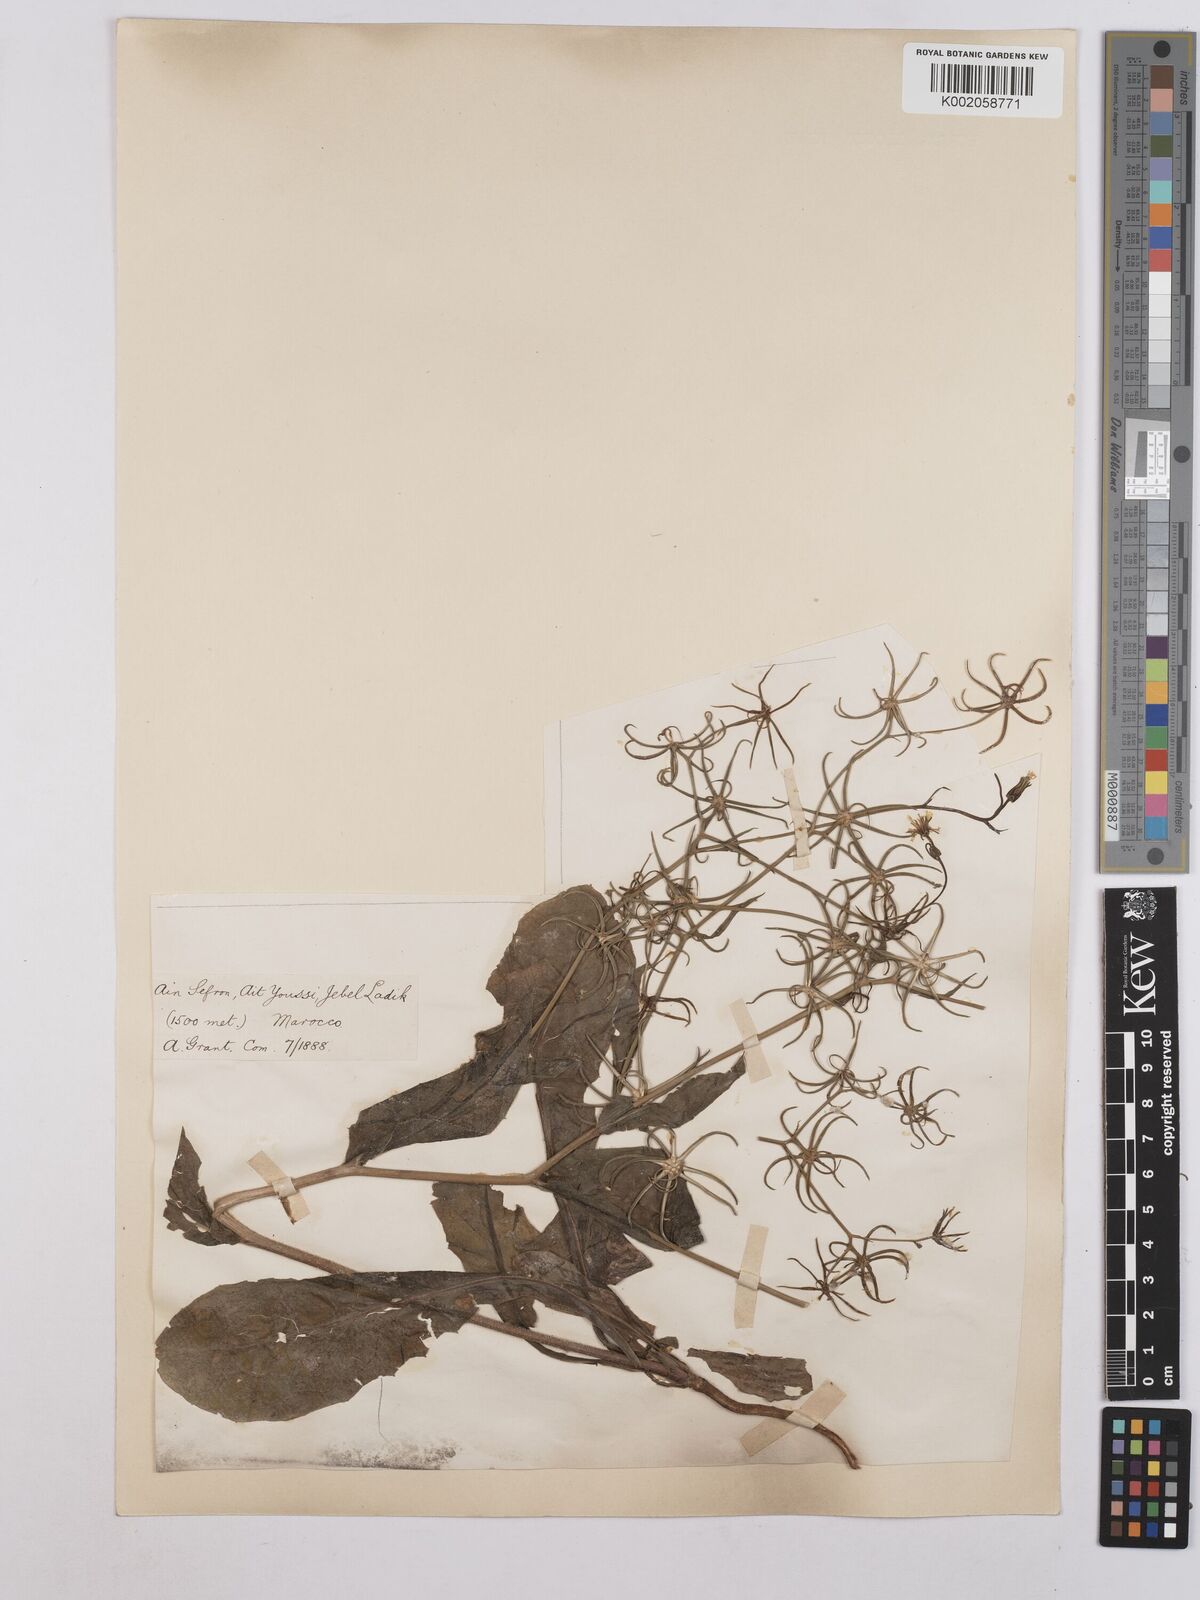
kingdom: Plantae
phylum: Tracheophyta
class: Magnoliopsida
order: Asterales
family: Asteraceae
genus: Rhagadiolus
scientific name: Rhagadiolus stellatus
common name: Star hawkbit
